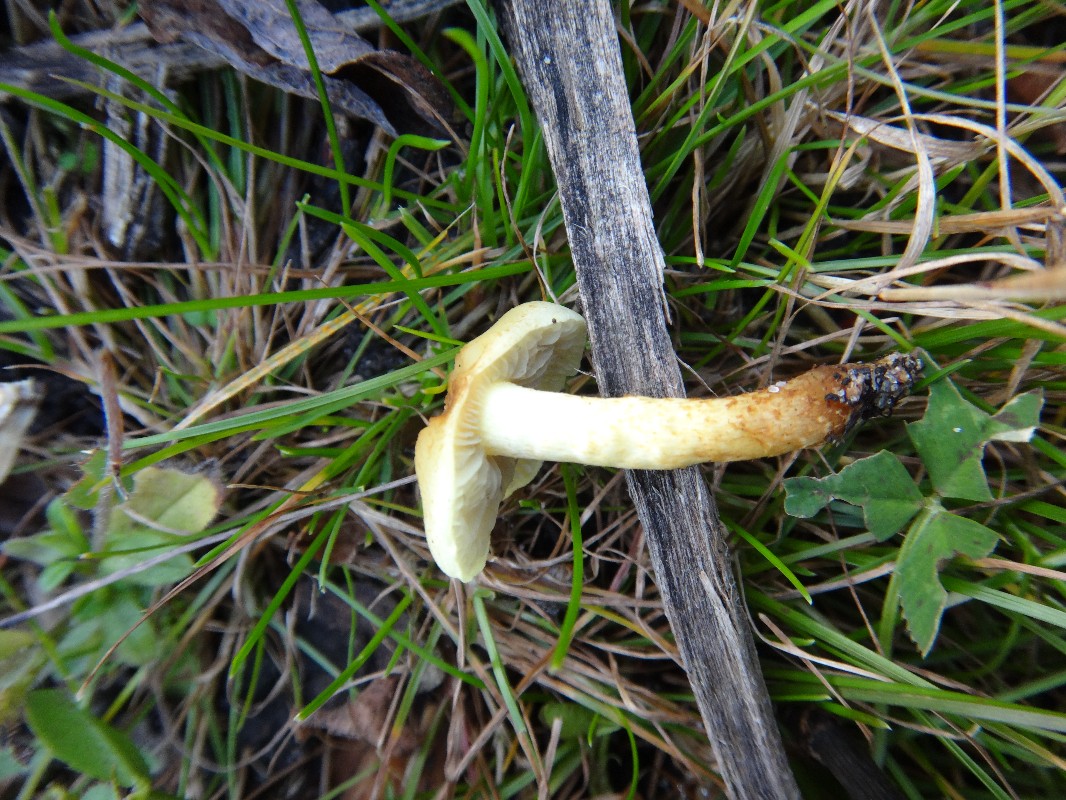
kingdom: Fungi
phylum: Basidiomycota
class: Agaricomycetes
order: Agaricales
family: Strophariaceae
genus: Hypholoma
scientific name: Hypholoma fasciculare
